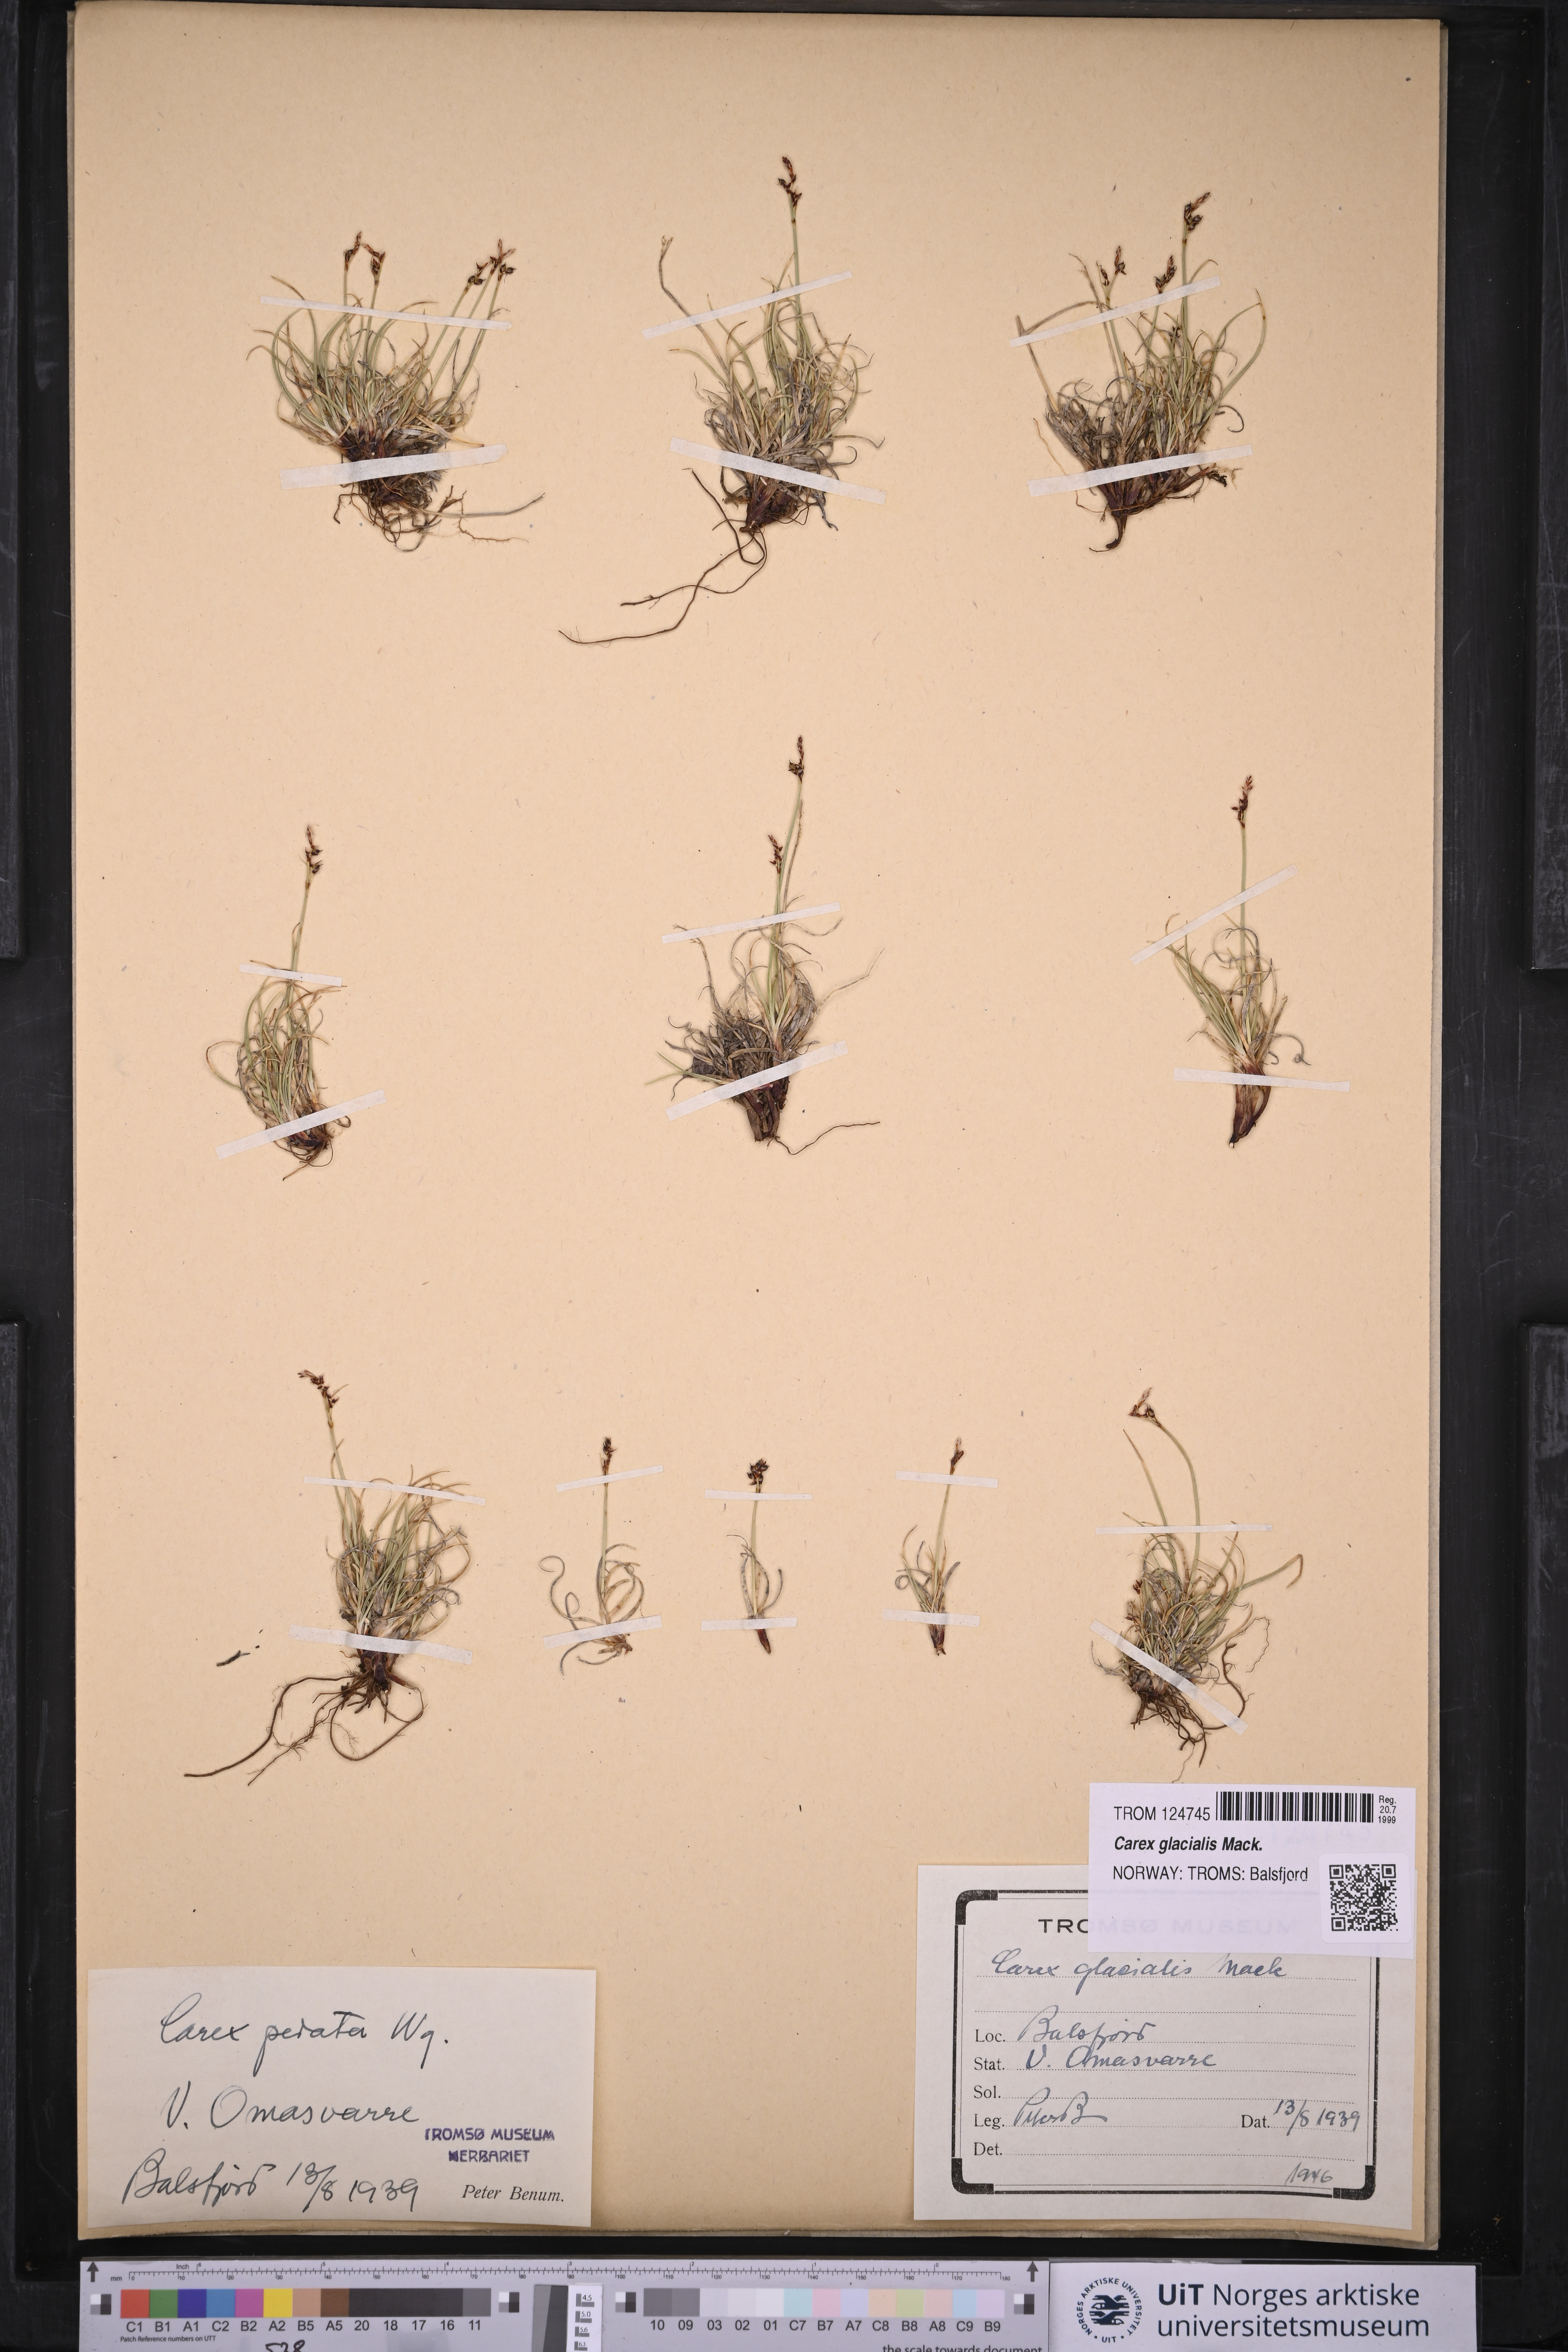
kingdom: Plantae
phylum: Tracheophyta
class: Liliopsida
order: Poales
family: Cyperaceae
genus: Carex
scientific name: Carex glacialis
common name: Newfoundland sedge
